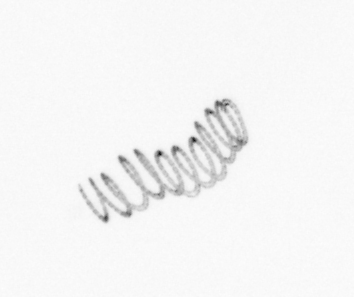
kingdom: Chromista
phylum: Ochrophyta
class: Bacillariophyceae
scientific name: Bacillariophyceae
